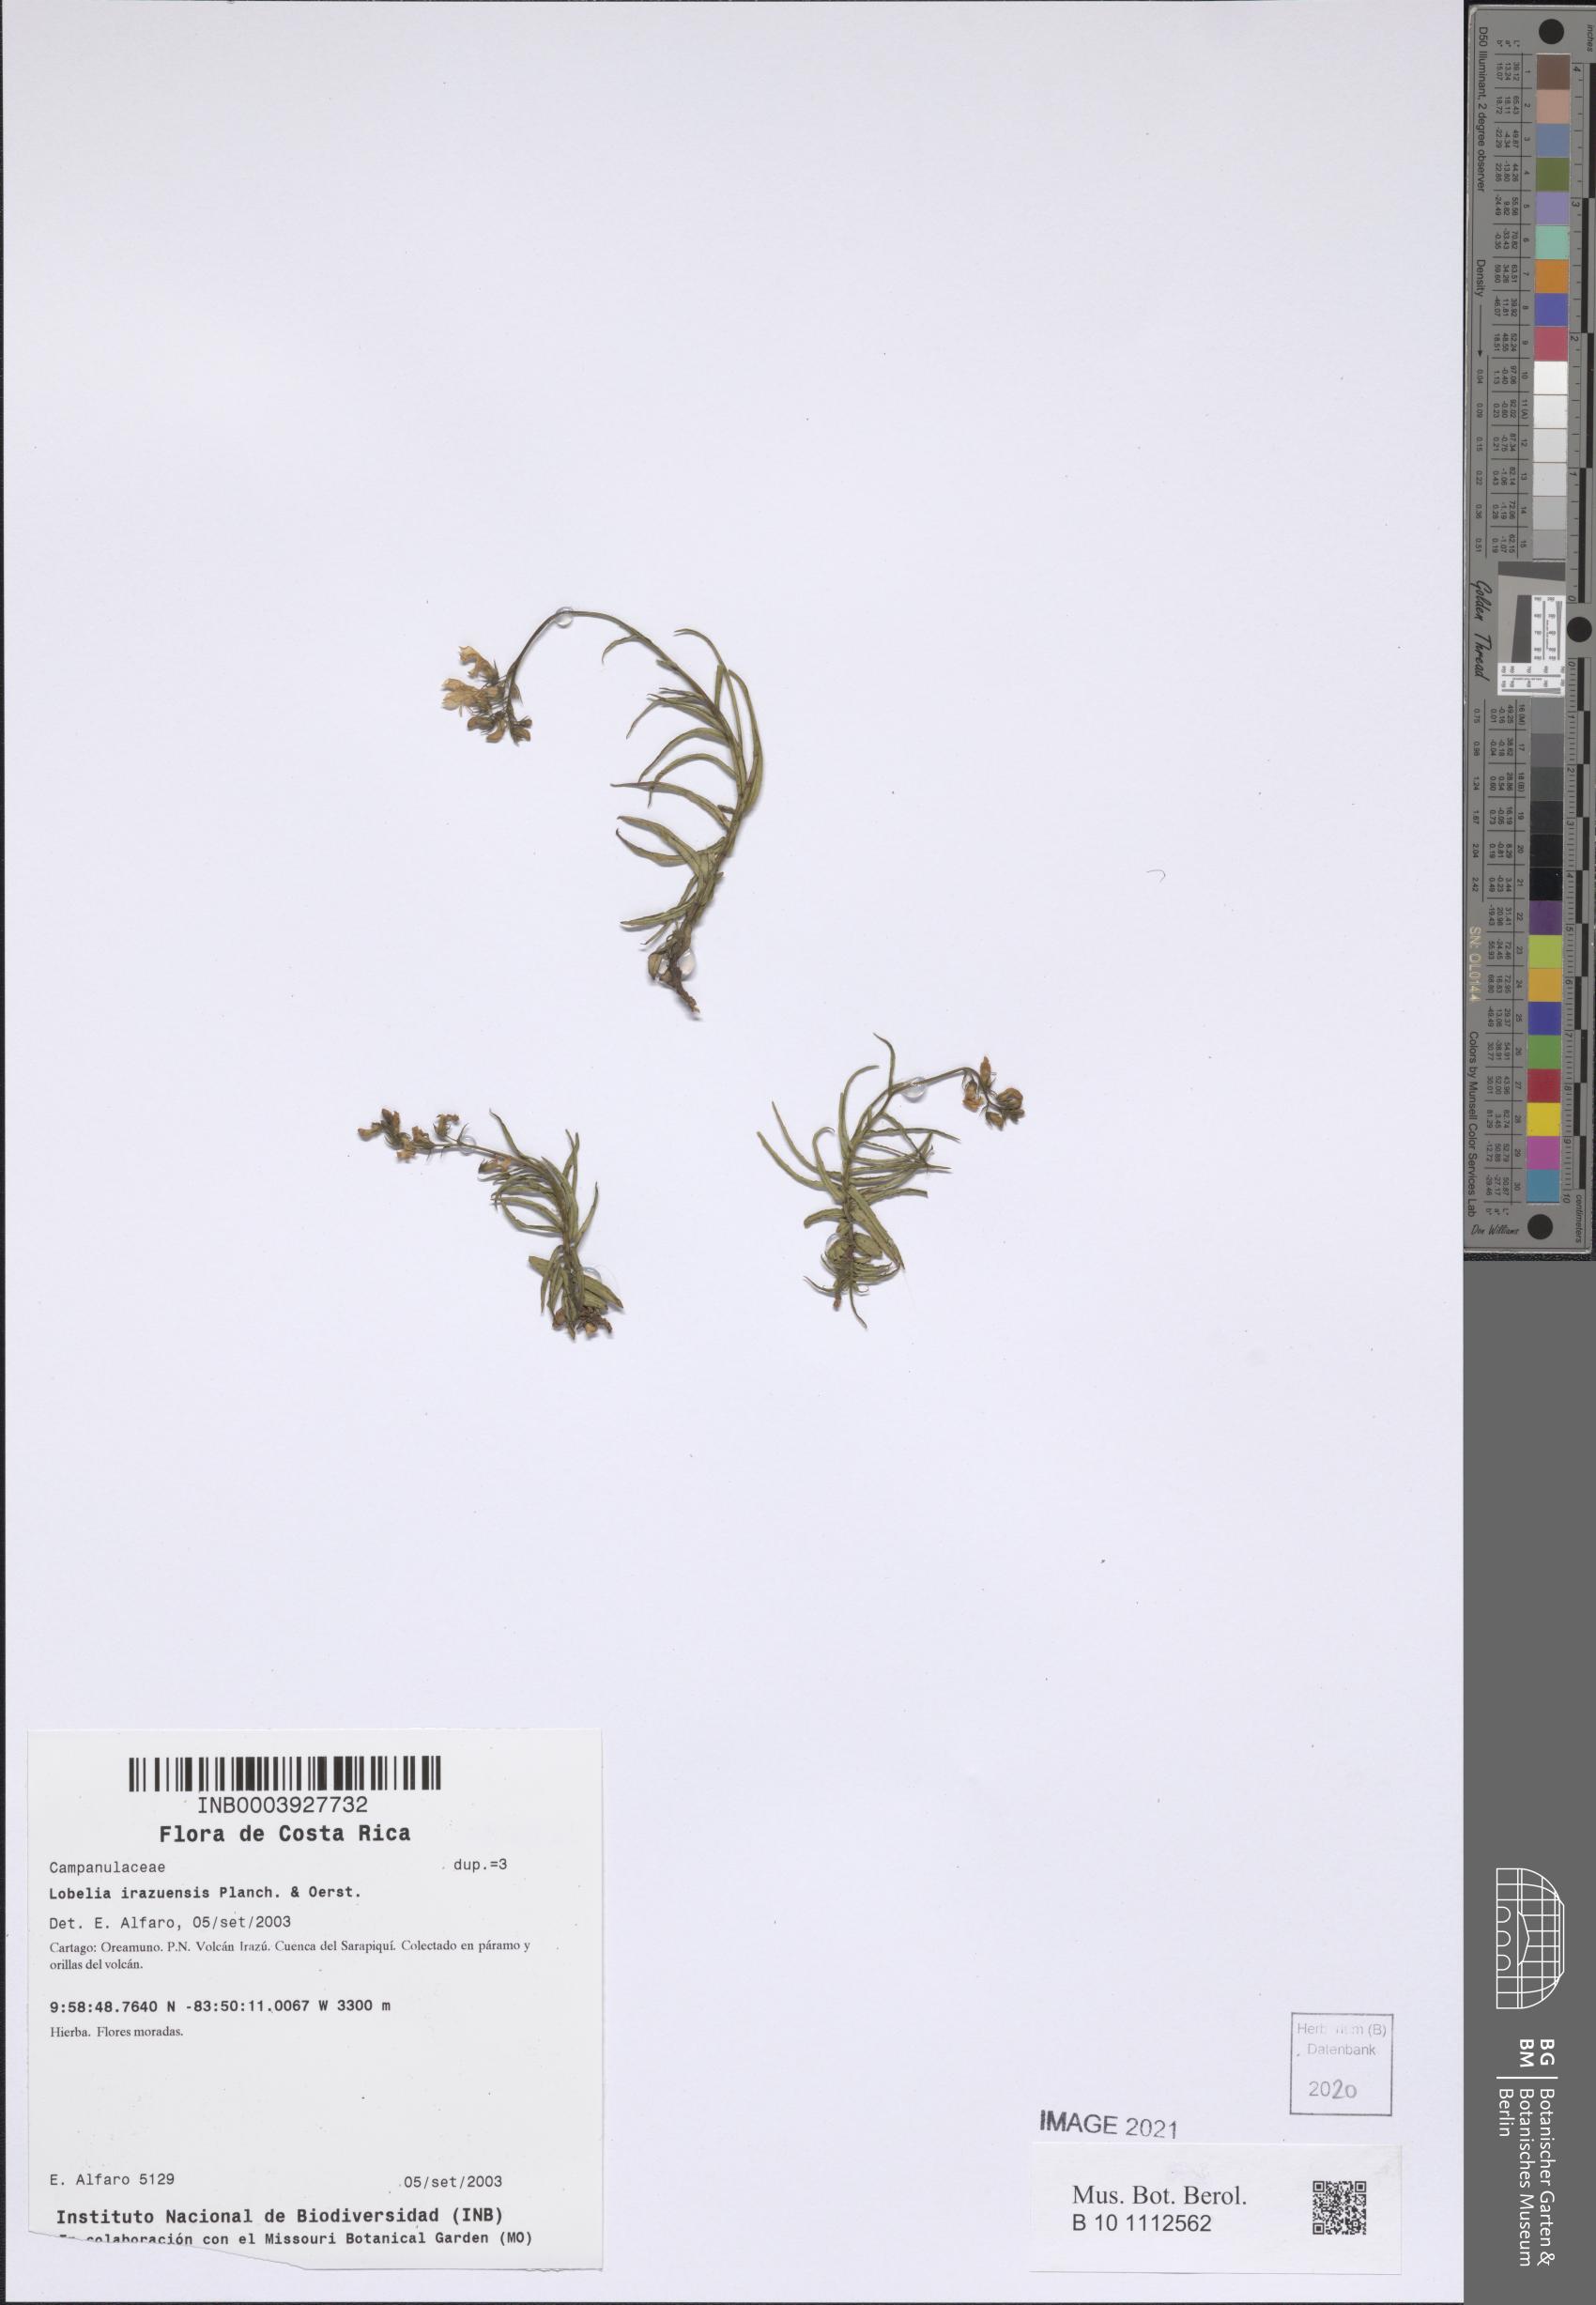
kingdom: Plantae
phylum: Tracheophyta
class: Magnoliopsida
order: Asterales
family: Campanulaceae
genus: Lobelia
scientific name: Lobelia irasuensis
